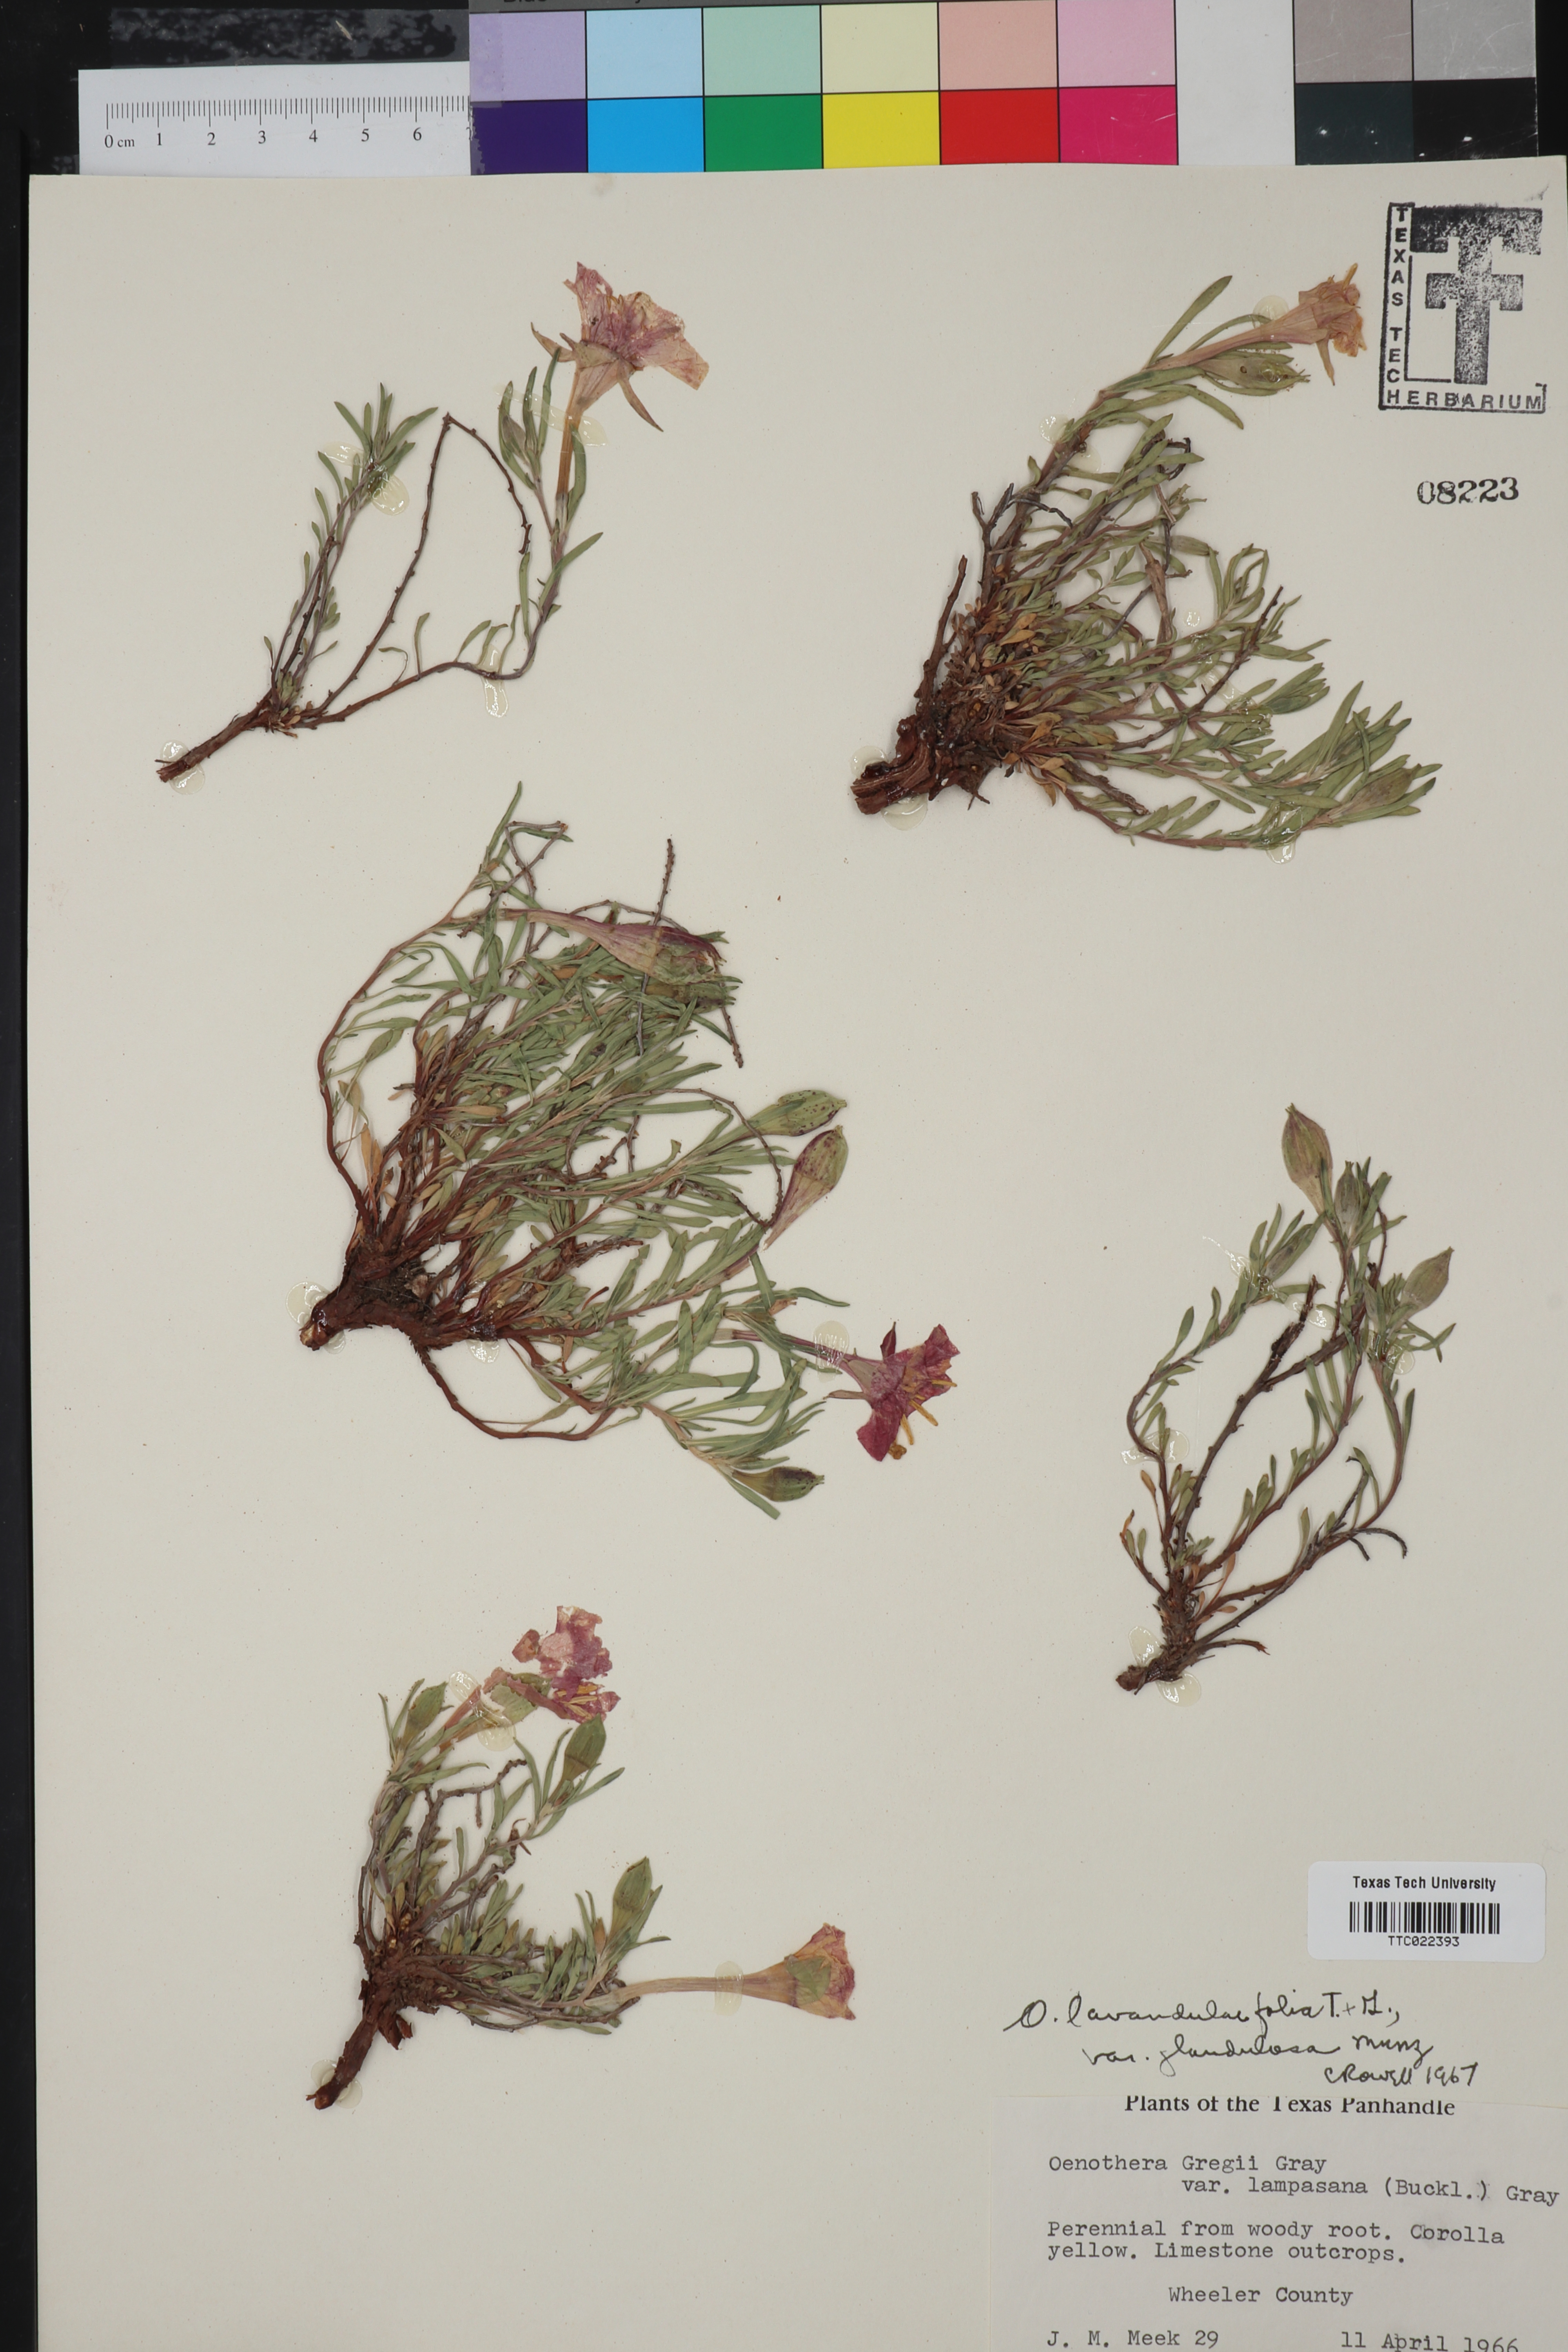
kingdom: Plantae
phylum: Tracheophyta
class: Magnoliopsida
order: Myrtales
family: Onagraceae
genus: Oenothera
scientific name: Oenothera hartwegii
